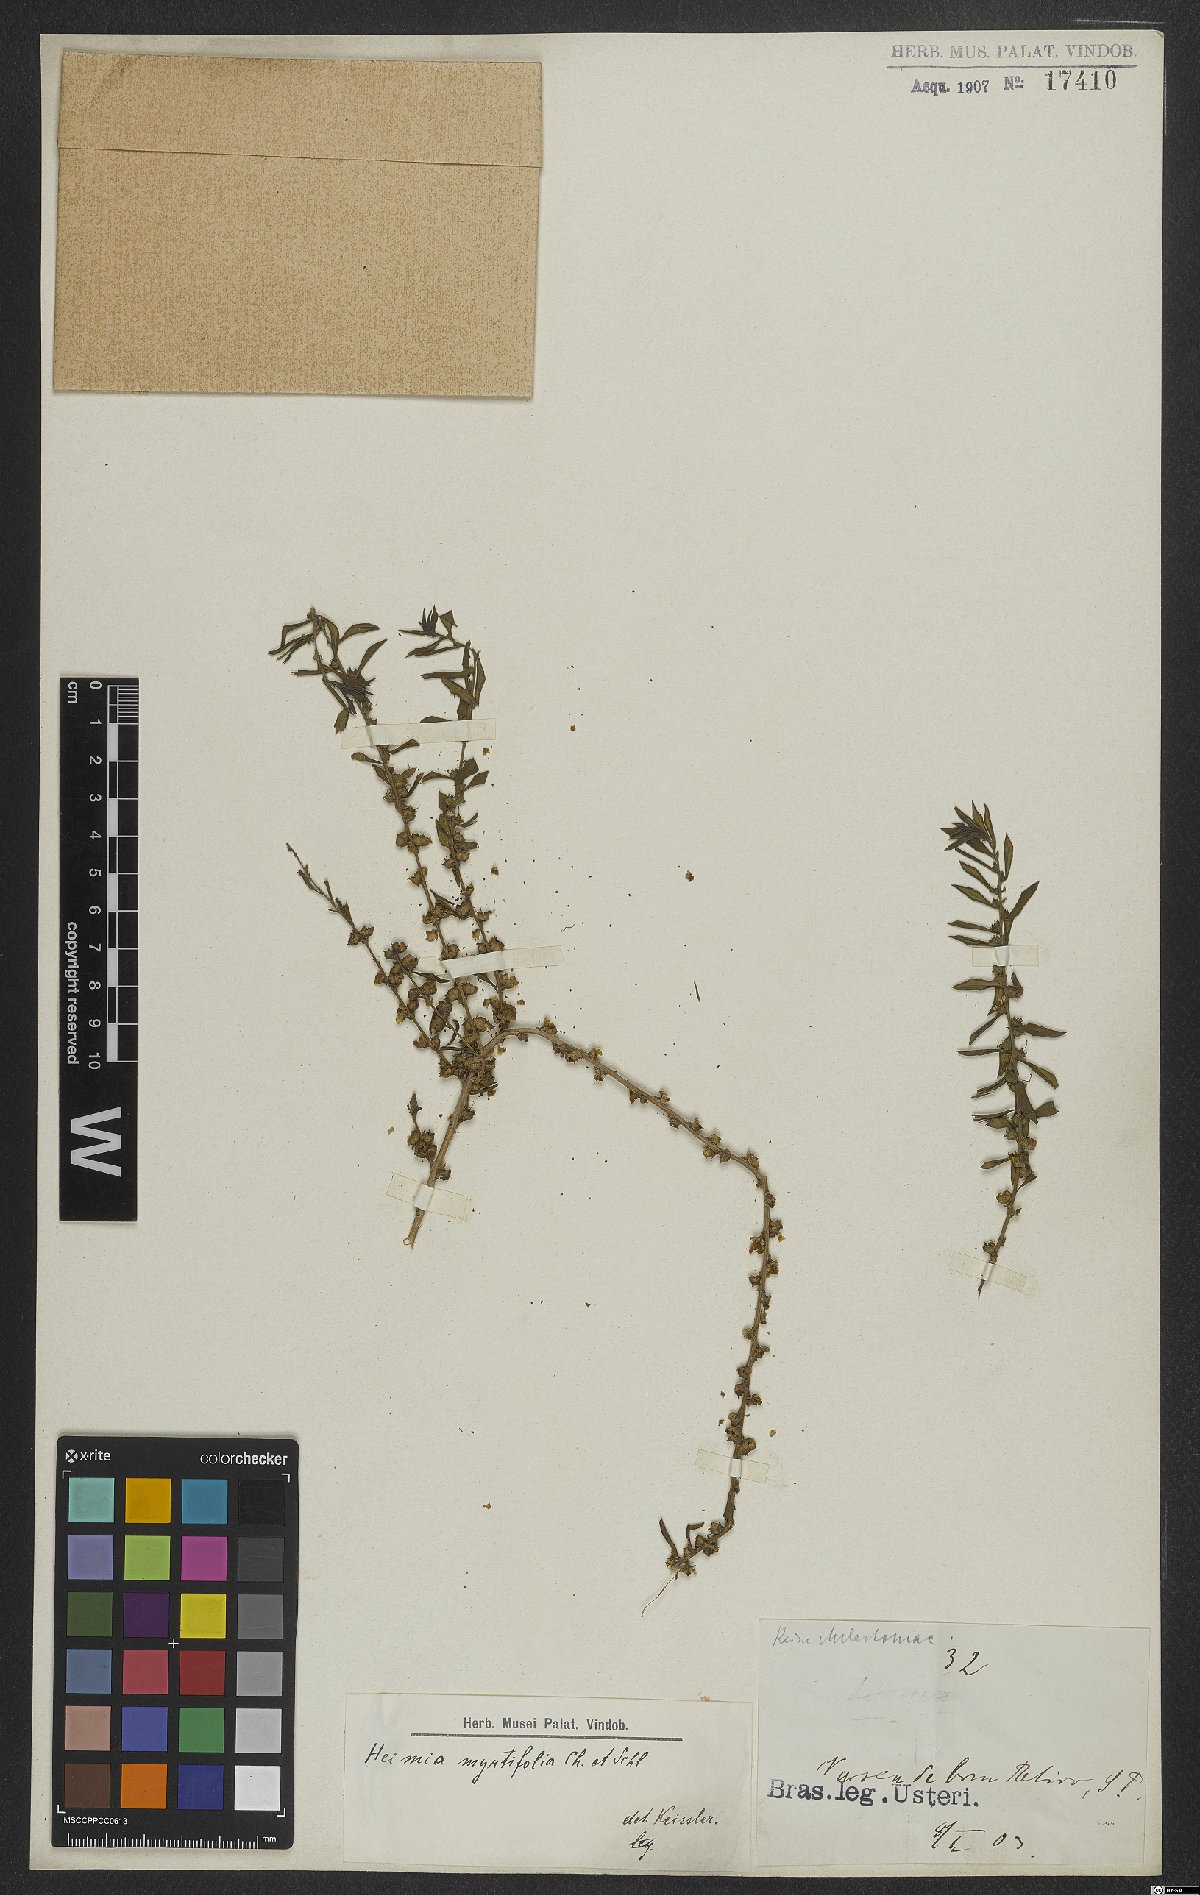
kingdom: Plantae
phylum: Tracheophyta
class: Magnoliopsida
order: Myrtales
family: Lythraceae
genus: Heimia
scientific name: Heimia apetala
